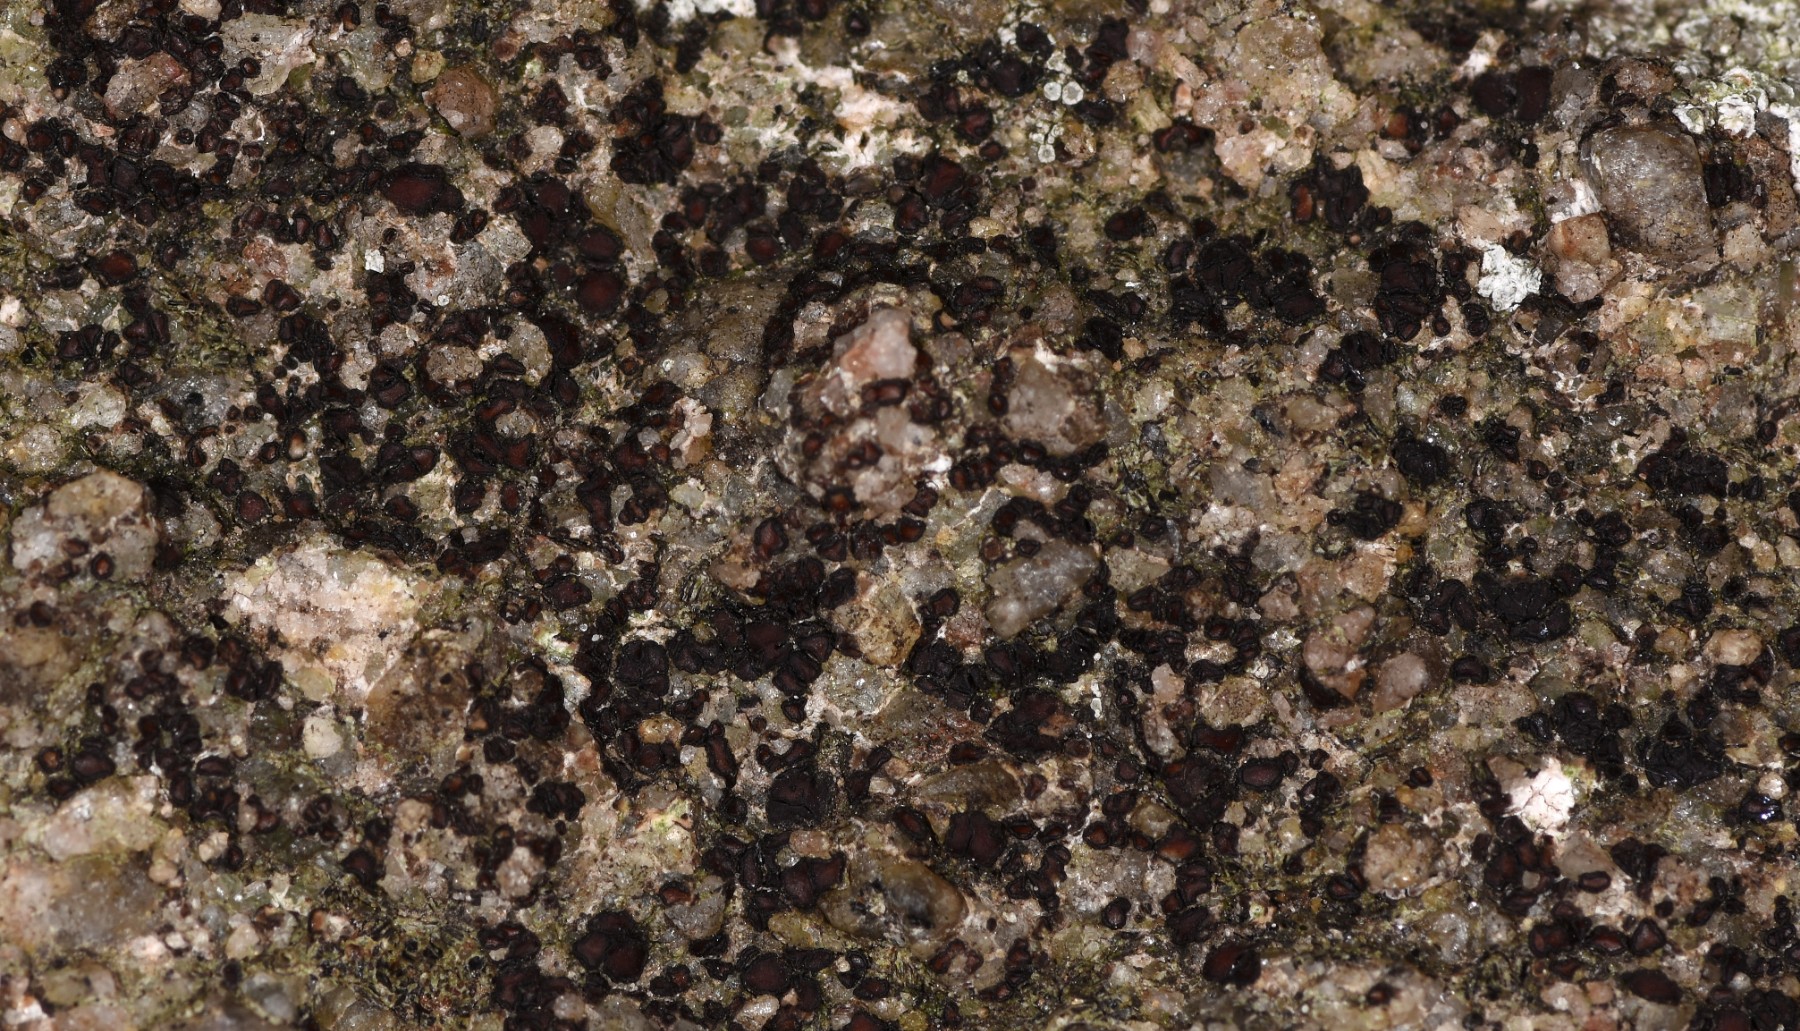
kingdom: Fungi
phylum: Ascomycota
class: Lecanoromycetes
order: Acarosporales
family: Acarosporaceae
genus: Acarospora
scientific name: Acarospora privigna
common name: sort foldekantlav
